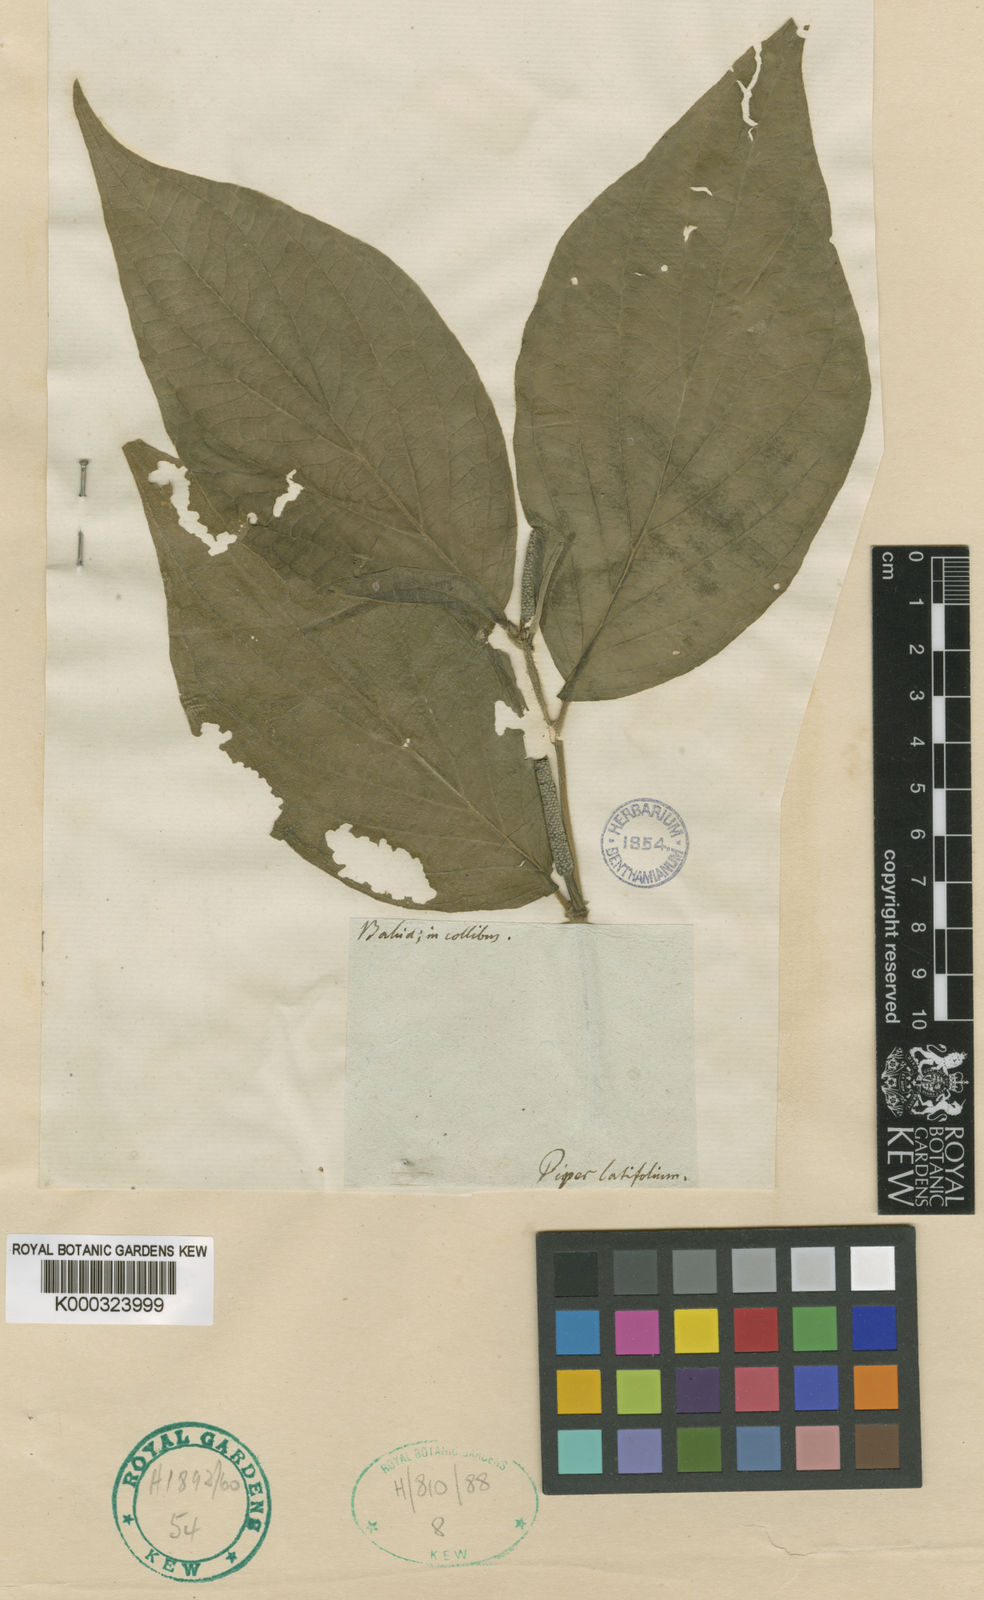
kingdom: Plantae
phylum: Tracheophyta
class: Magnoliopsida
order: Piperales
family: Piperaceae
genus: Piper
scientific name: Piper dilatatum
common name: Higuillo
